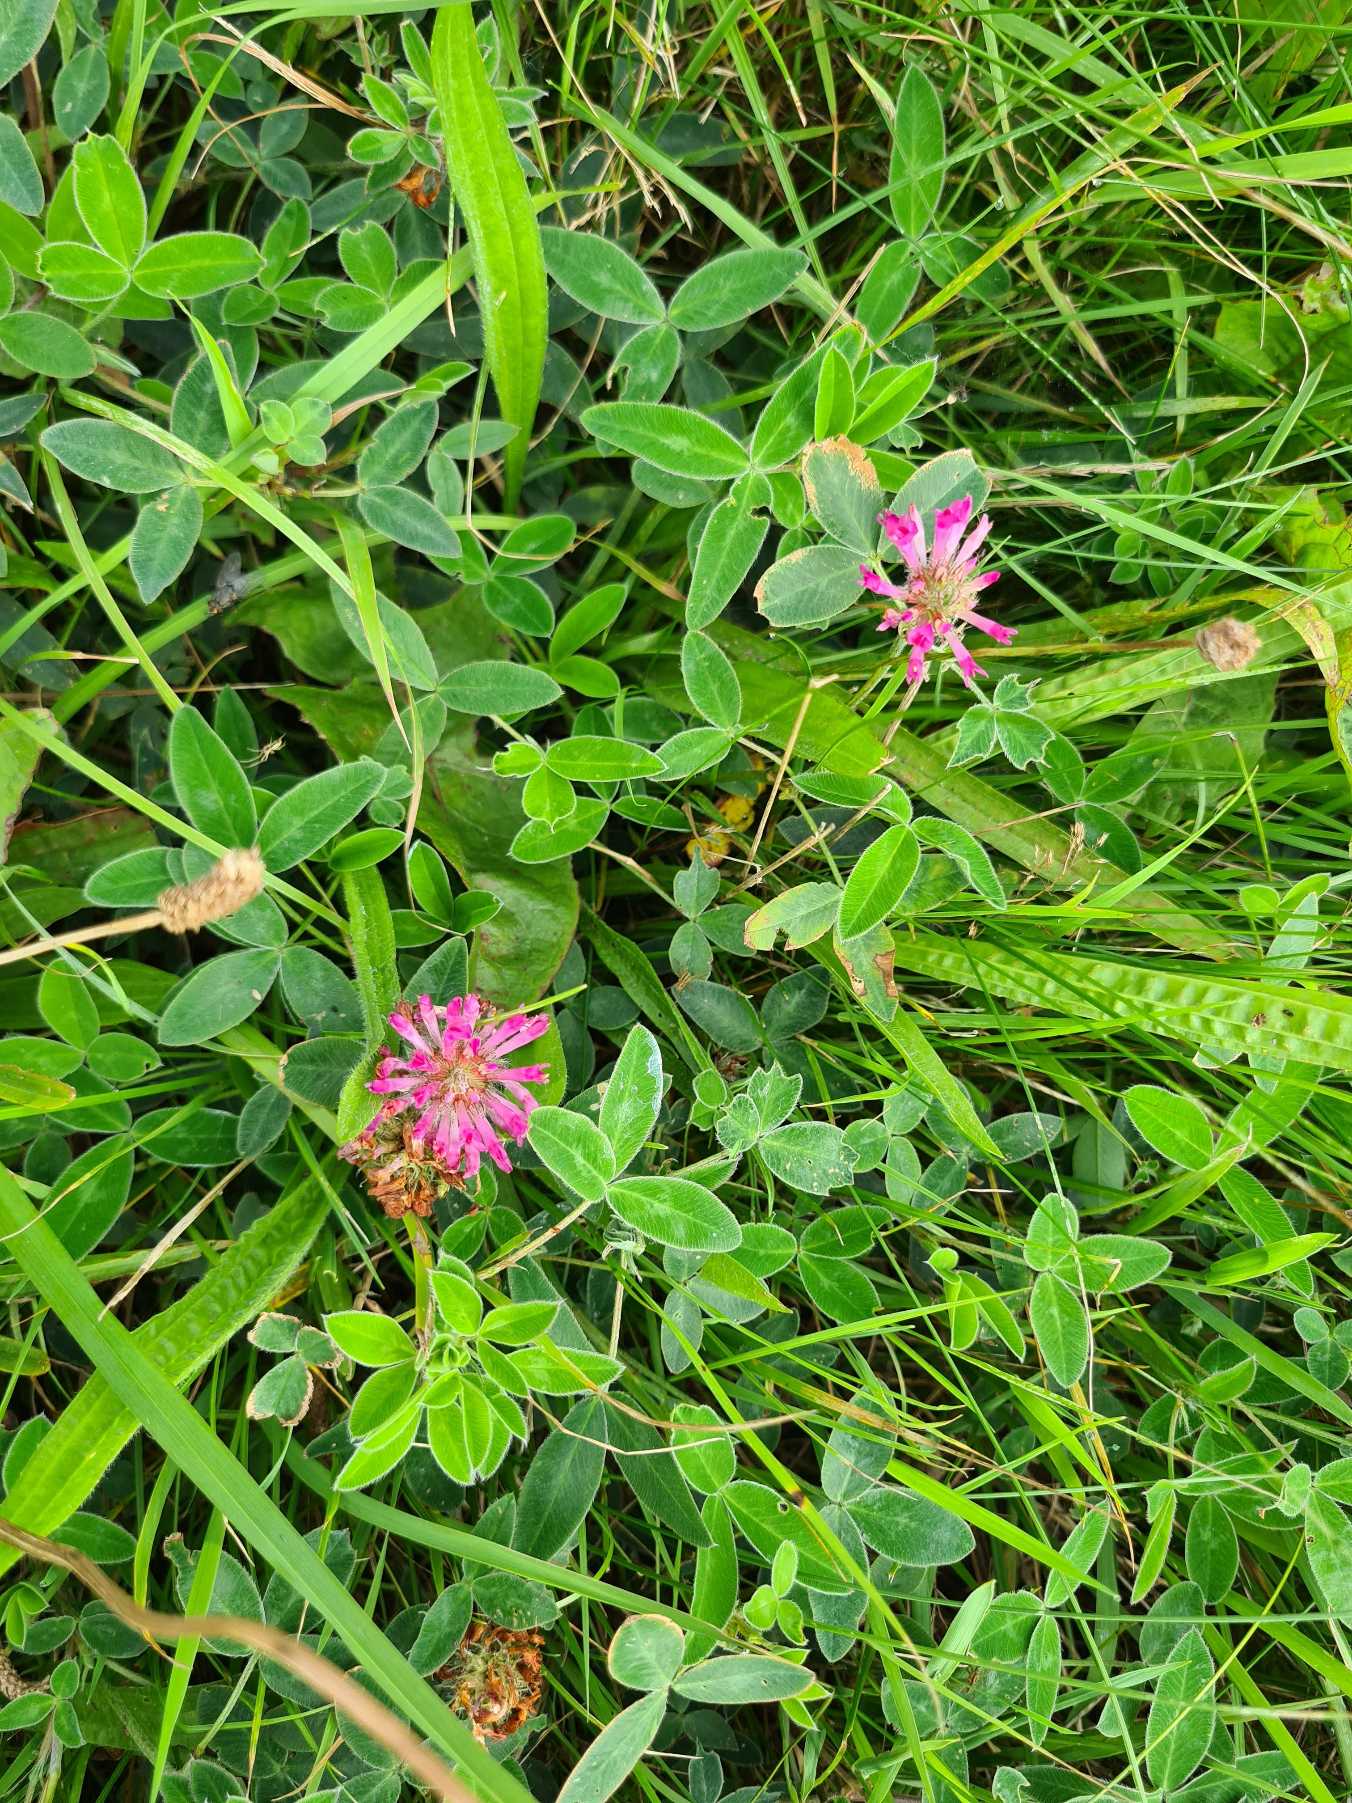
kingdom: Plantae
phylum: Tracheophyta
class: Magnoliopsida
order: Fabales
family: Fabaceae
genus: Trifolium
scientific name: Trifolium medium
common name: Bugtet kløver
